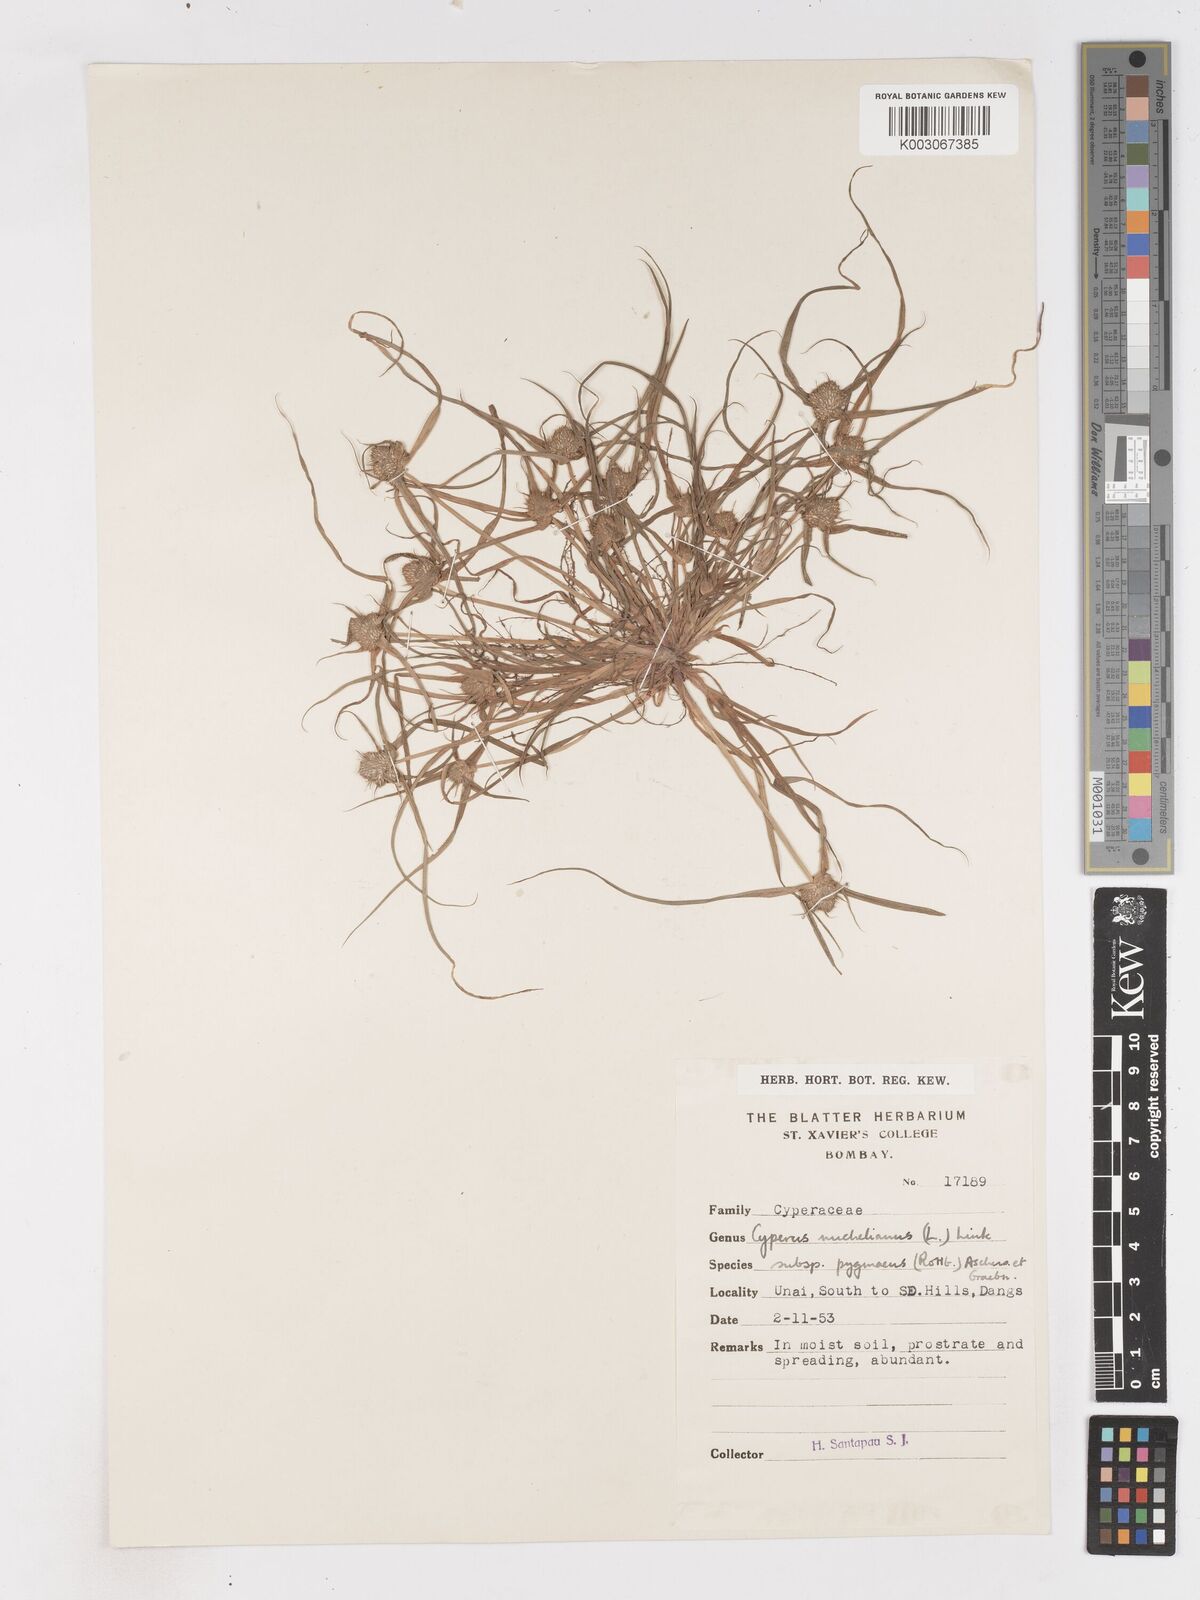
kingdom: Plantae
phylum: Tracheophyta
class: Liliopsida
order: Poales
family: Cyperaceae
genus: Cyperus
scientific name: Cyperus michelianus
